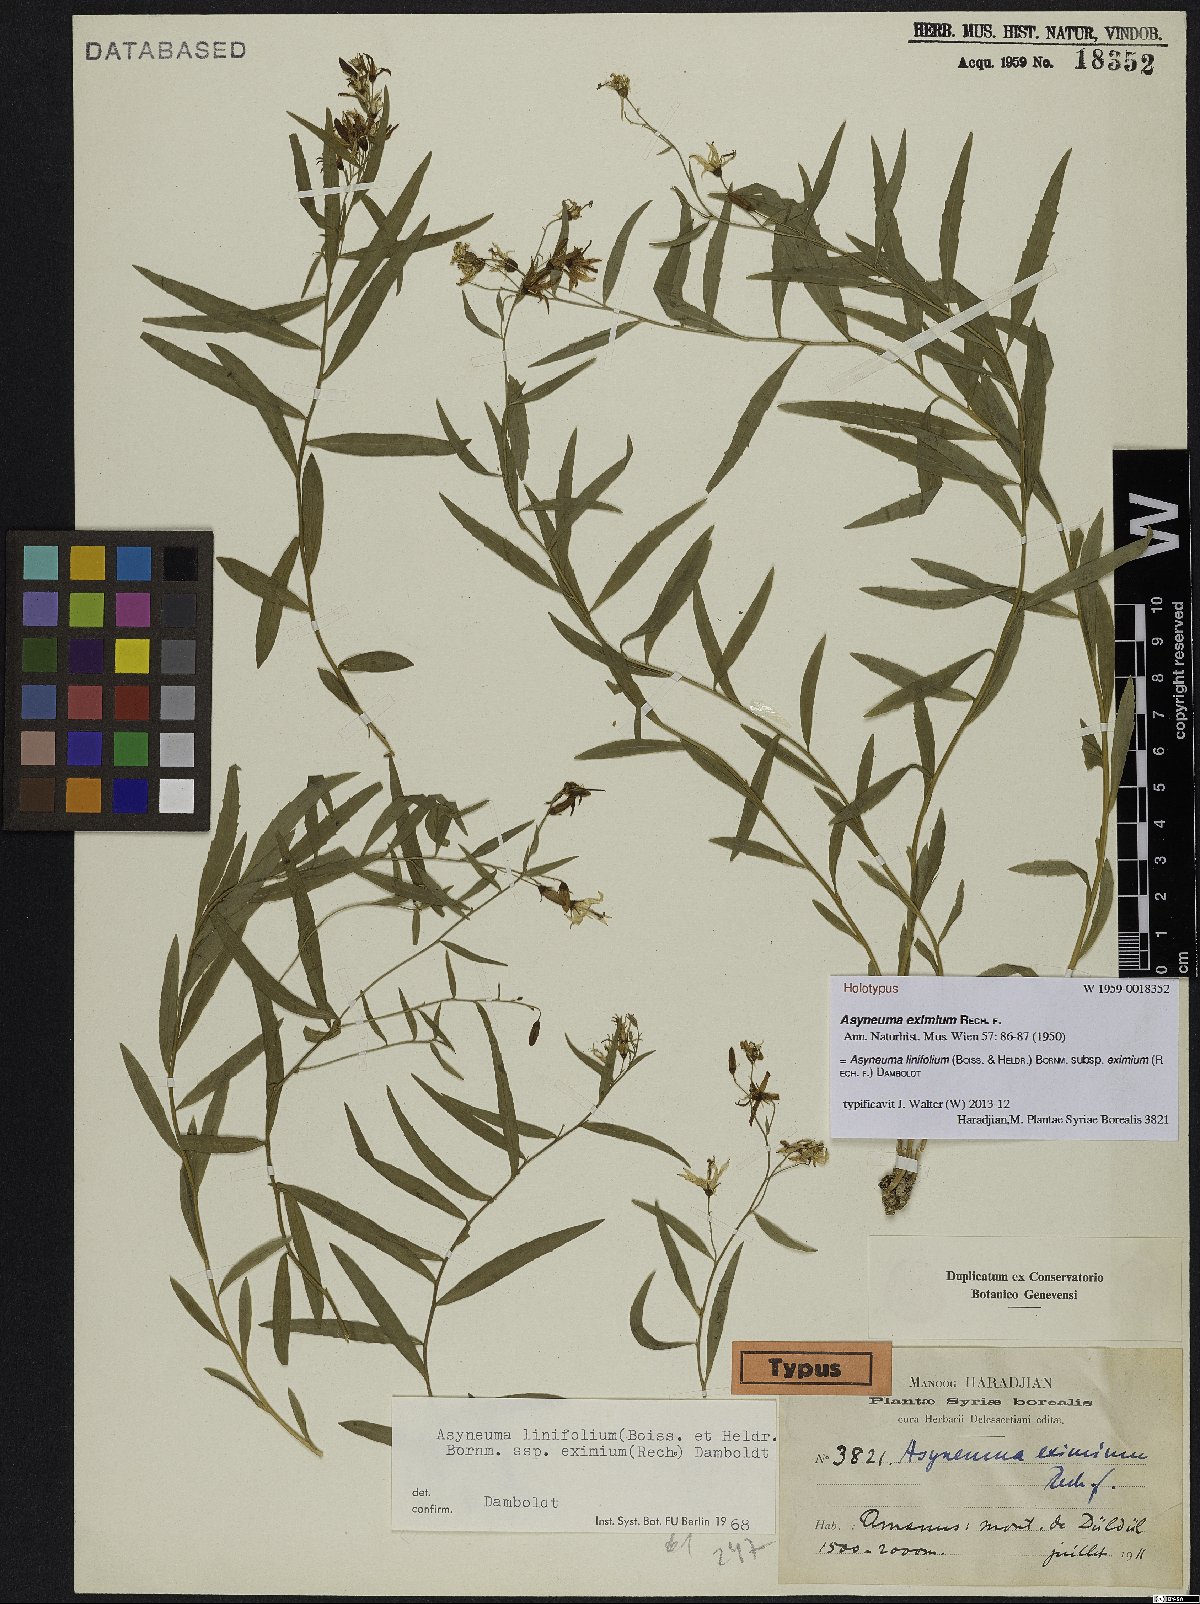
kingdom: Plantae
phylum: Tracheophyta
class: Magnoliopsida
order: Asterales
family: Campanulaceae
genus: Asyneuma
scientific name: Asyneuma linifolium
